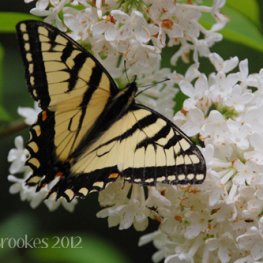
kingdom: Animalia
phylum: Arthropoda
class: Insecta
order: Lepidoptera
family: Papilionidae
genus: Pterourus
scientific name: Pterourus canadensis
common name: Canadian Tiger Swallowtail
